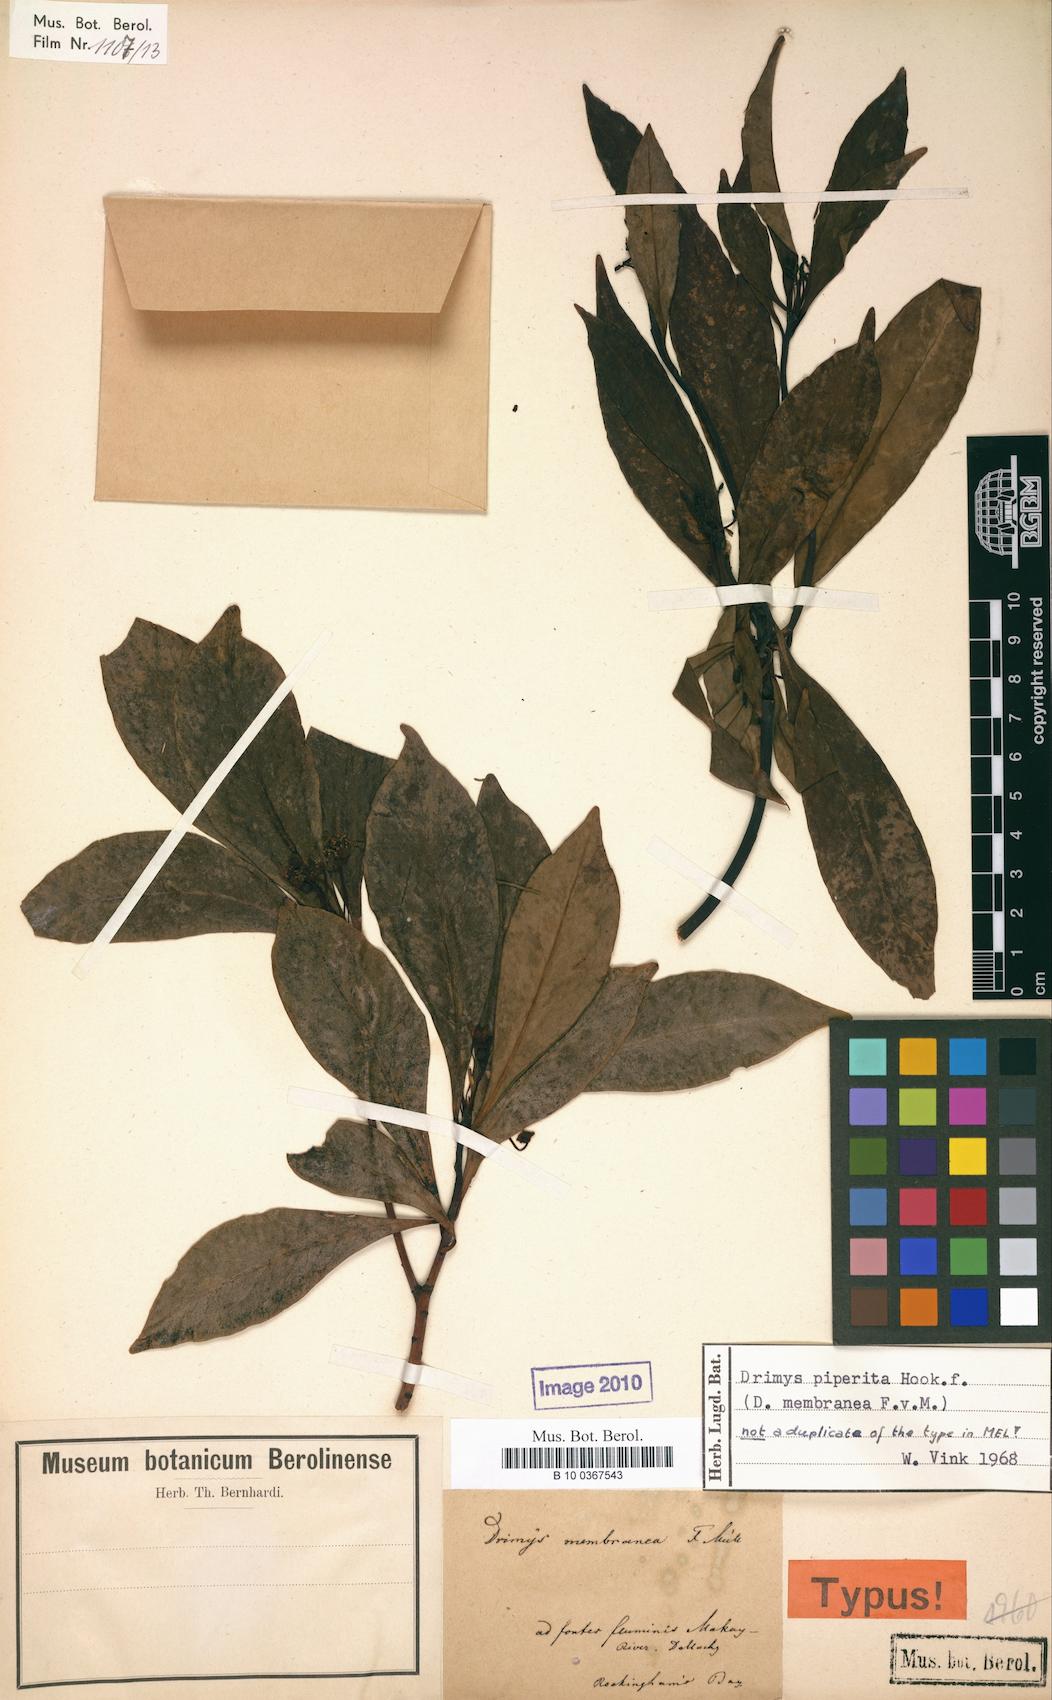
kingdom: Plantae
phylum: Tracheophyta
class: Magnoliopsida
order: Canellales
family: Winteraceae
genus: Drimys
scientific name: Drimys piperita
